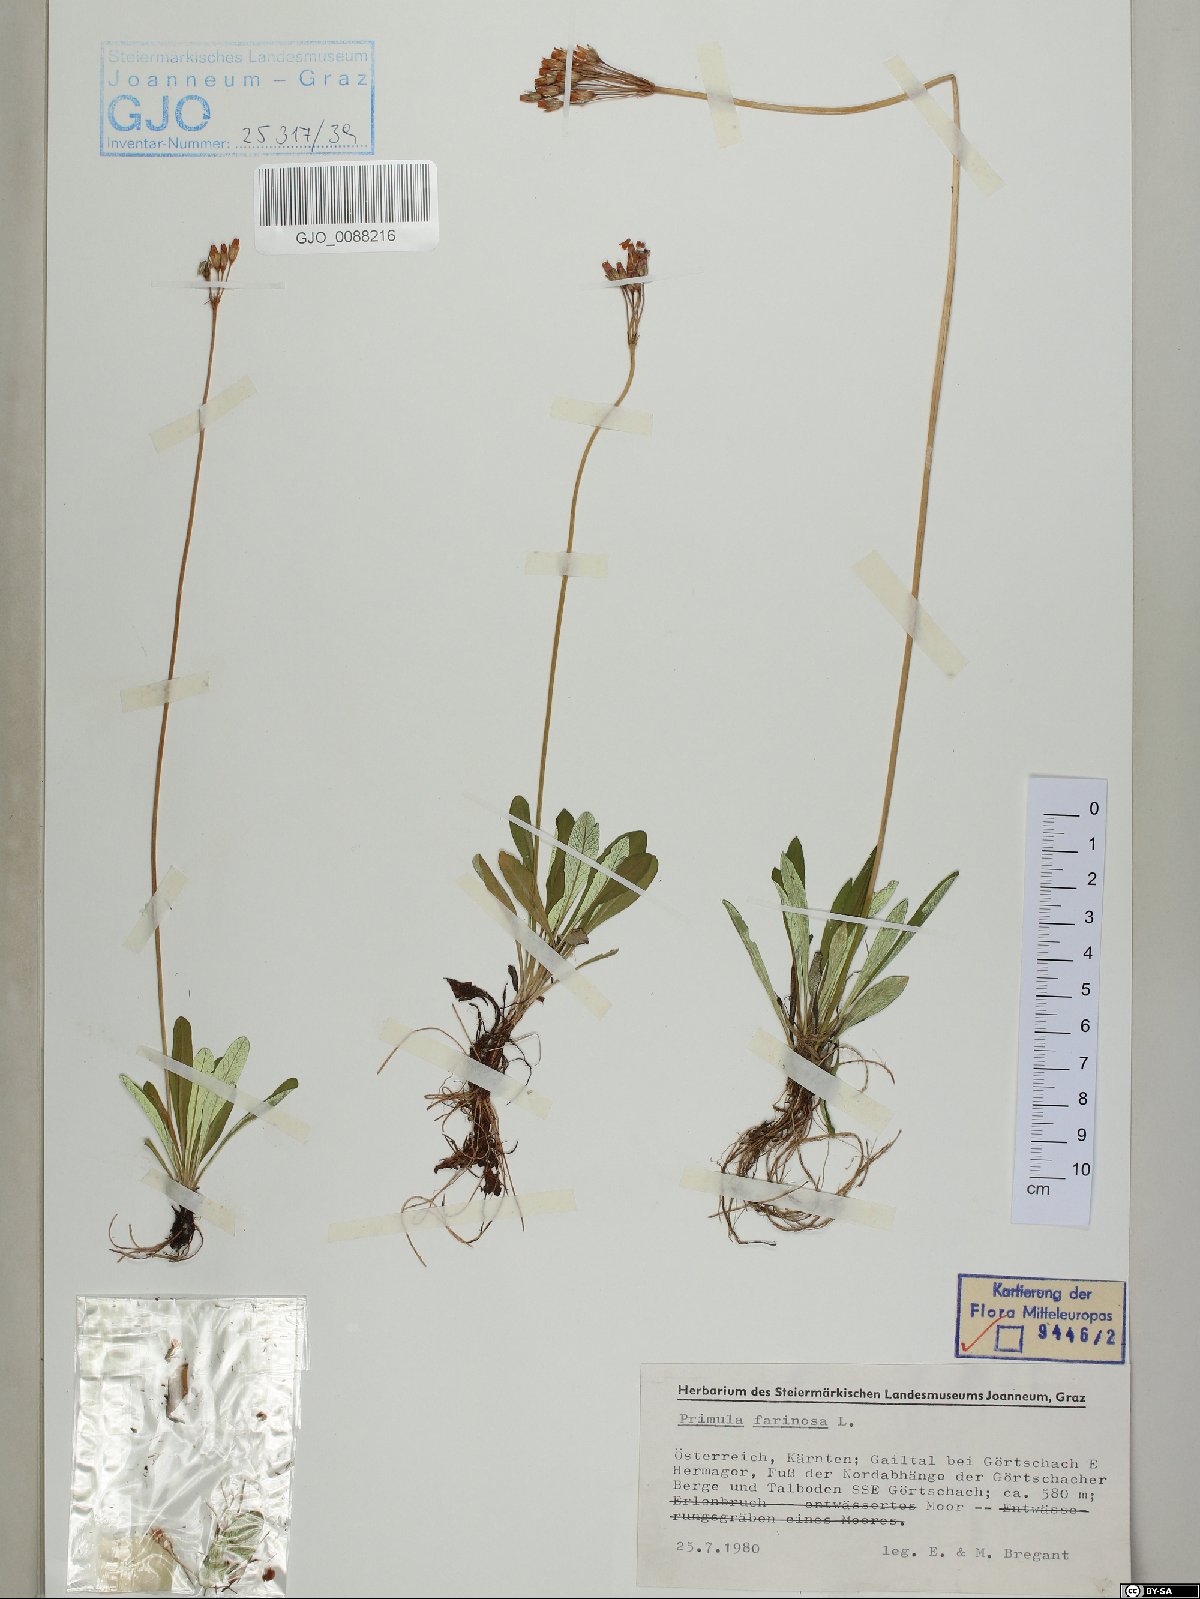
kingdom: Plantae
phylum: Tracheophyta
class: Magnoliopsida
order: Ericales
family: Primulaceae
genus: Primula
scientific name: Primula farinosa
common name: Bird's-eye primrose
